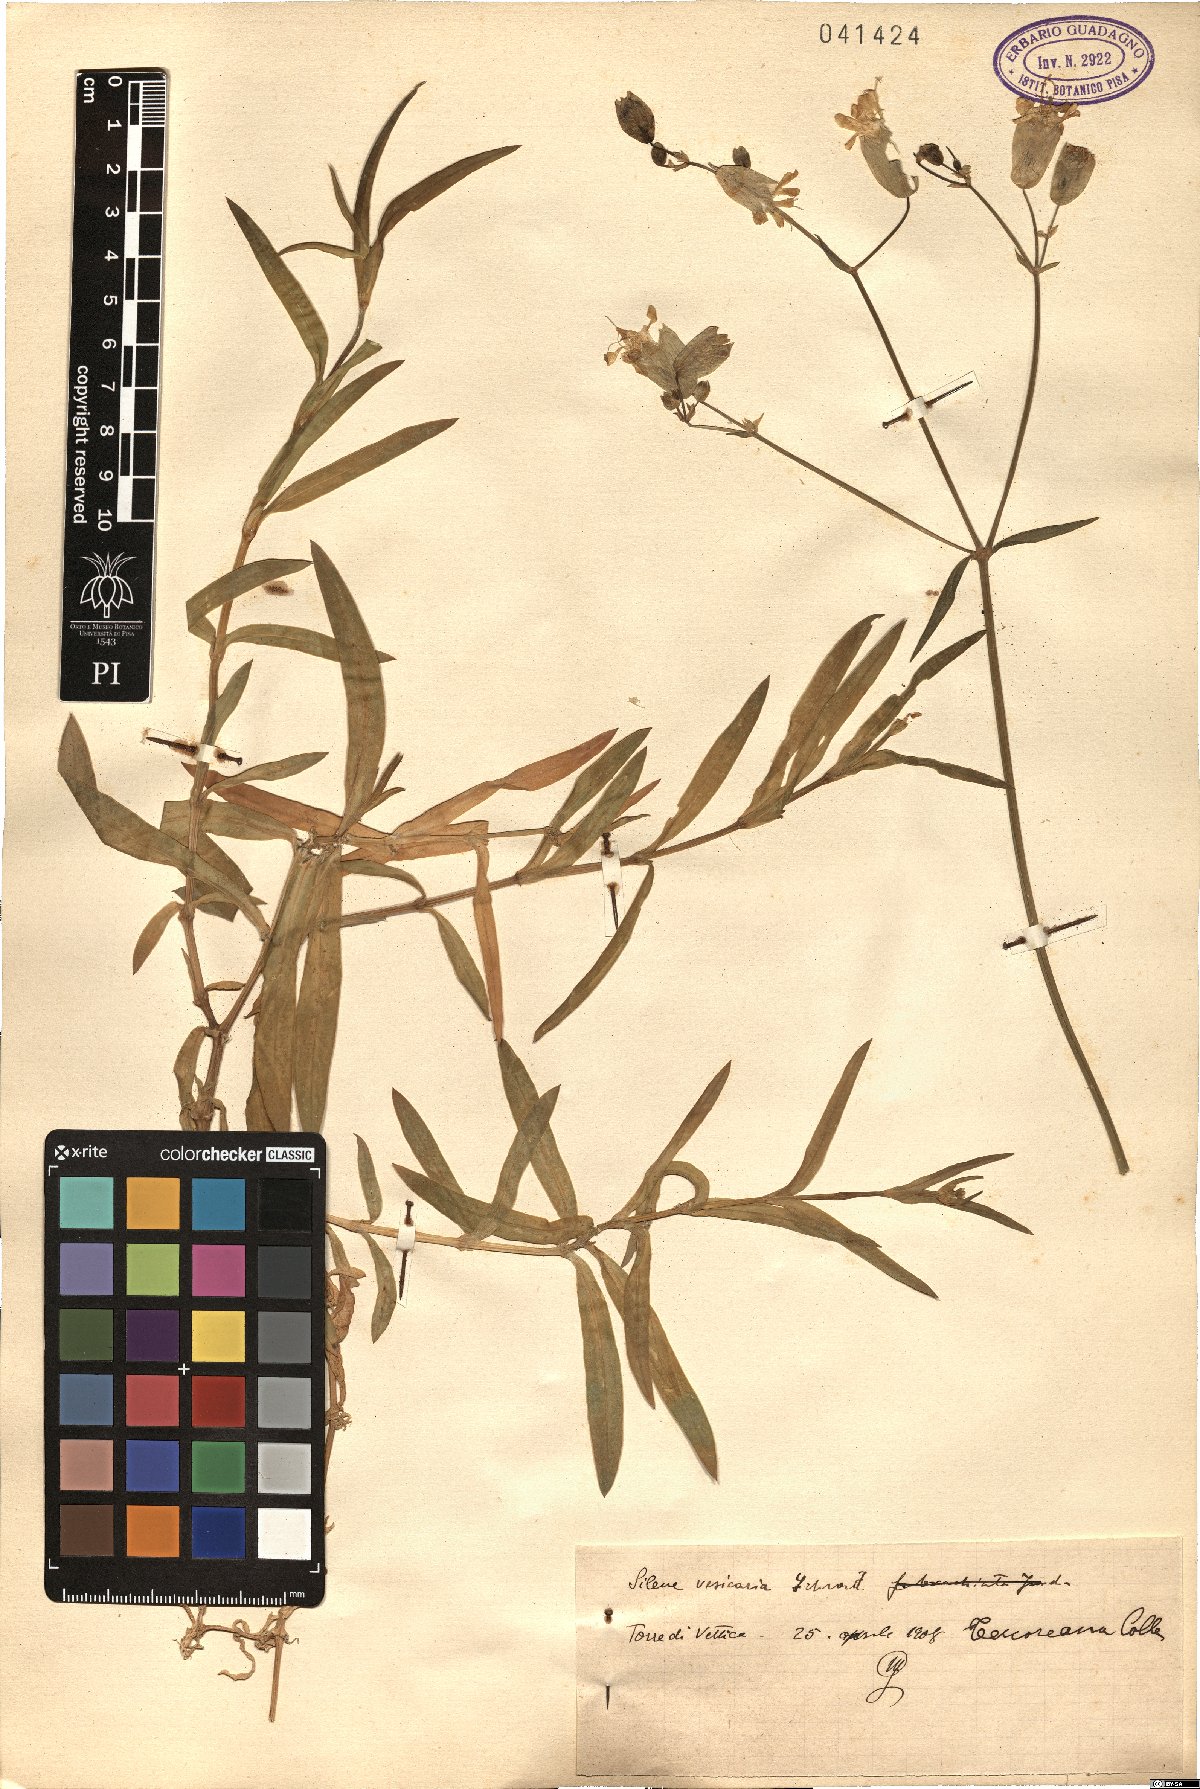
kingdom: Plantae
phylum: Tracheophyta
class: Magnoliopsida
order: Caryophyllales
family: Caryophyllaceae
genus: Silene
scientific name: Silene vulgaris
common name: Bladder campion
